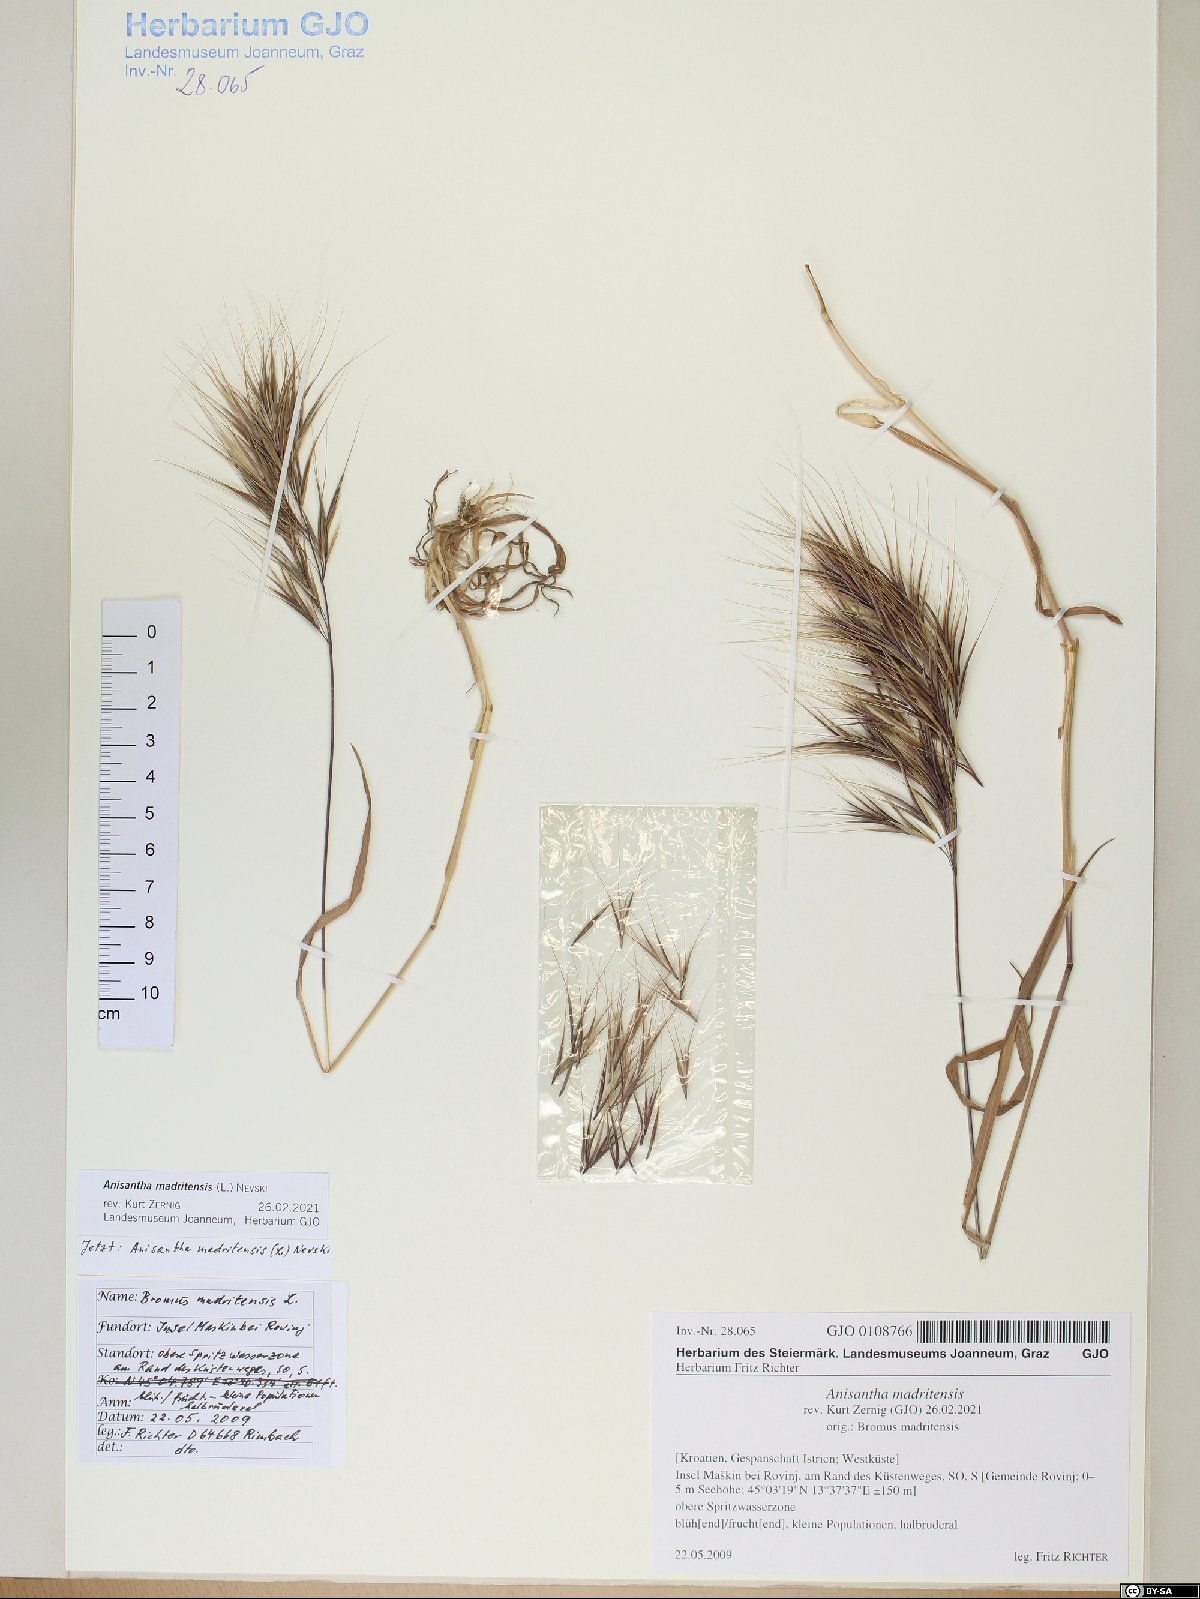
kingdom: Plantae
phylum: Tracheophyta
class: Liliopsida
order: Poales
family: Poaceae
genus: Bromus
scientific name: Bromus madritensis
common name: Compact brome
